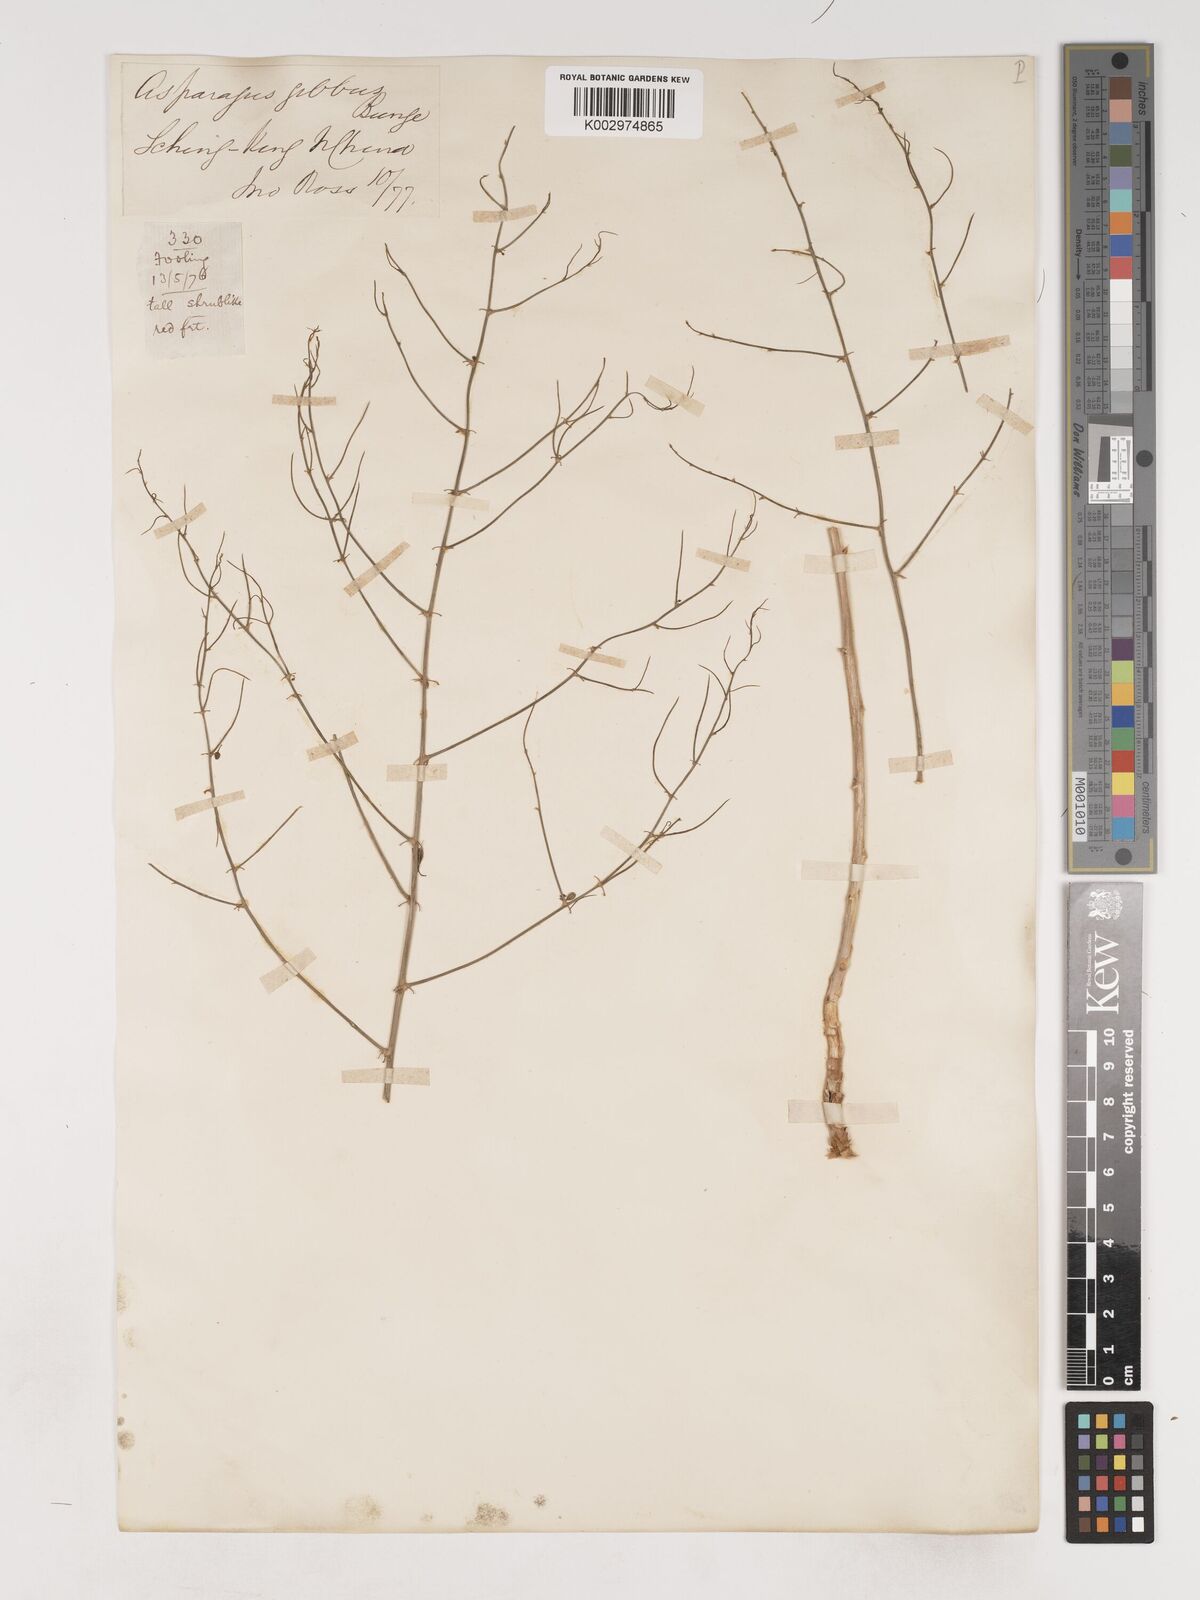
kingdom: Plantae
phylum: Tracheophyta
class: Liliopsida
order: Asparagales
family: Asparagaceae
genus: Asparagus
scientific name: Asparagus dauricus
